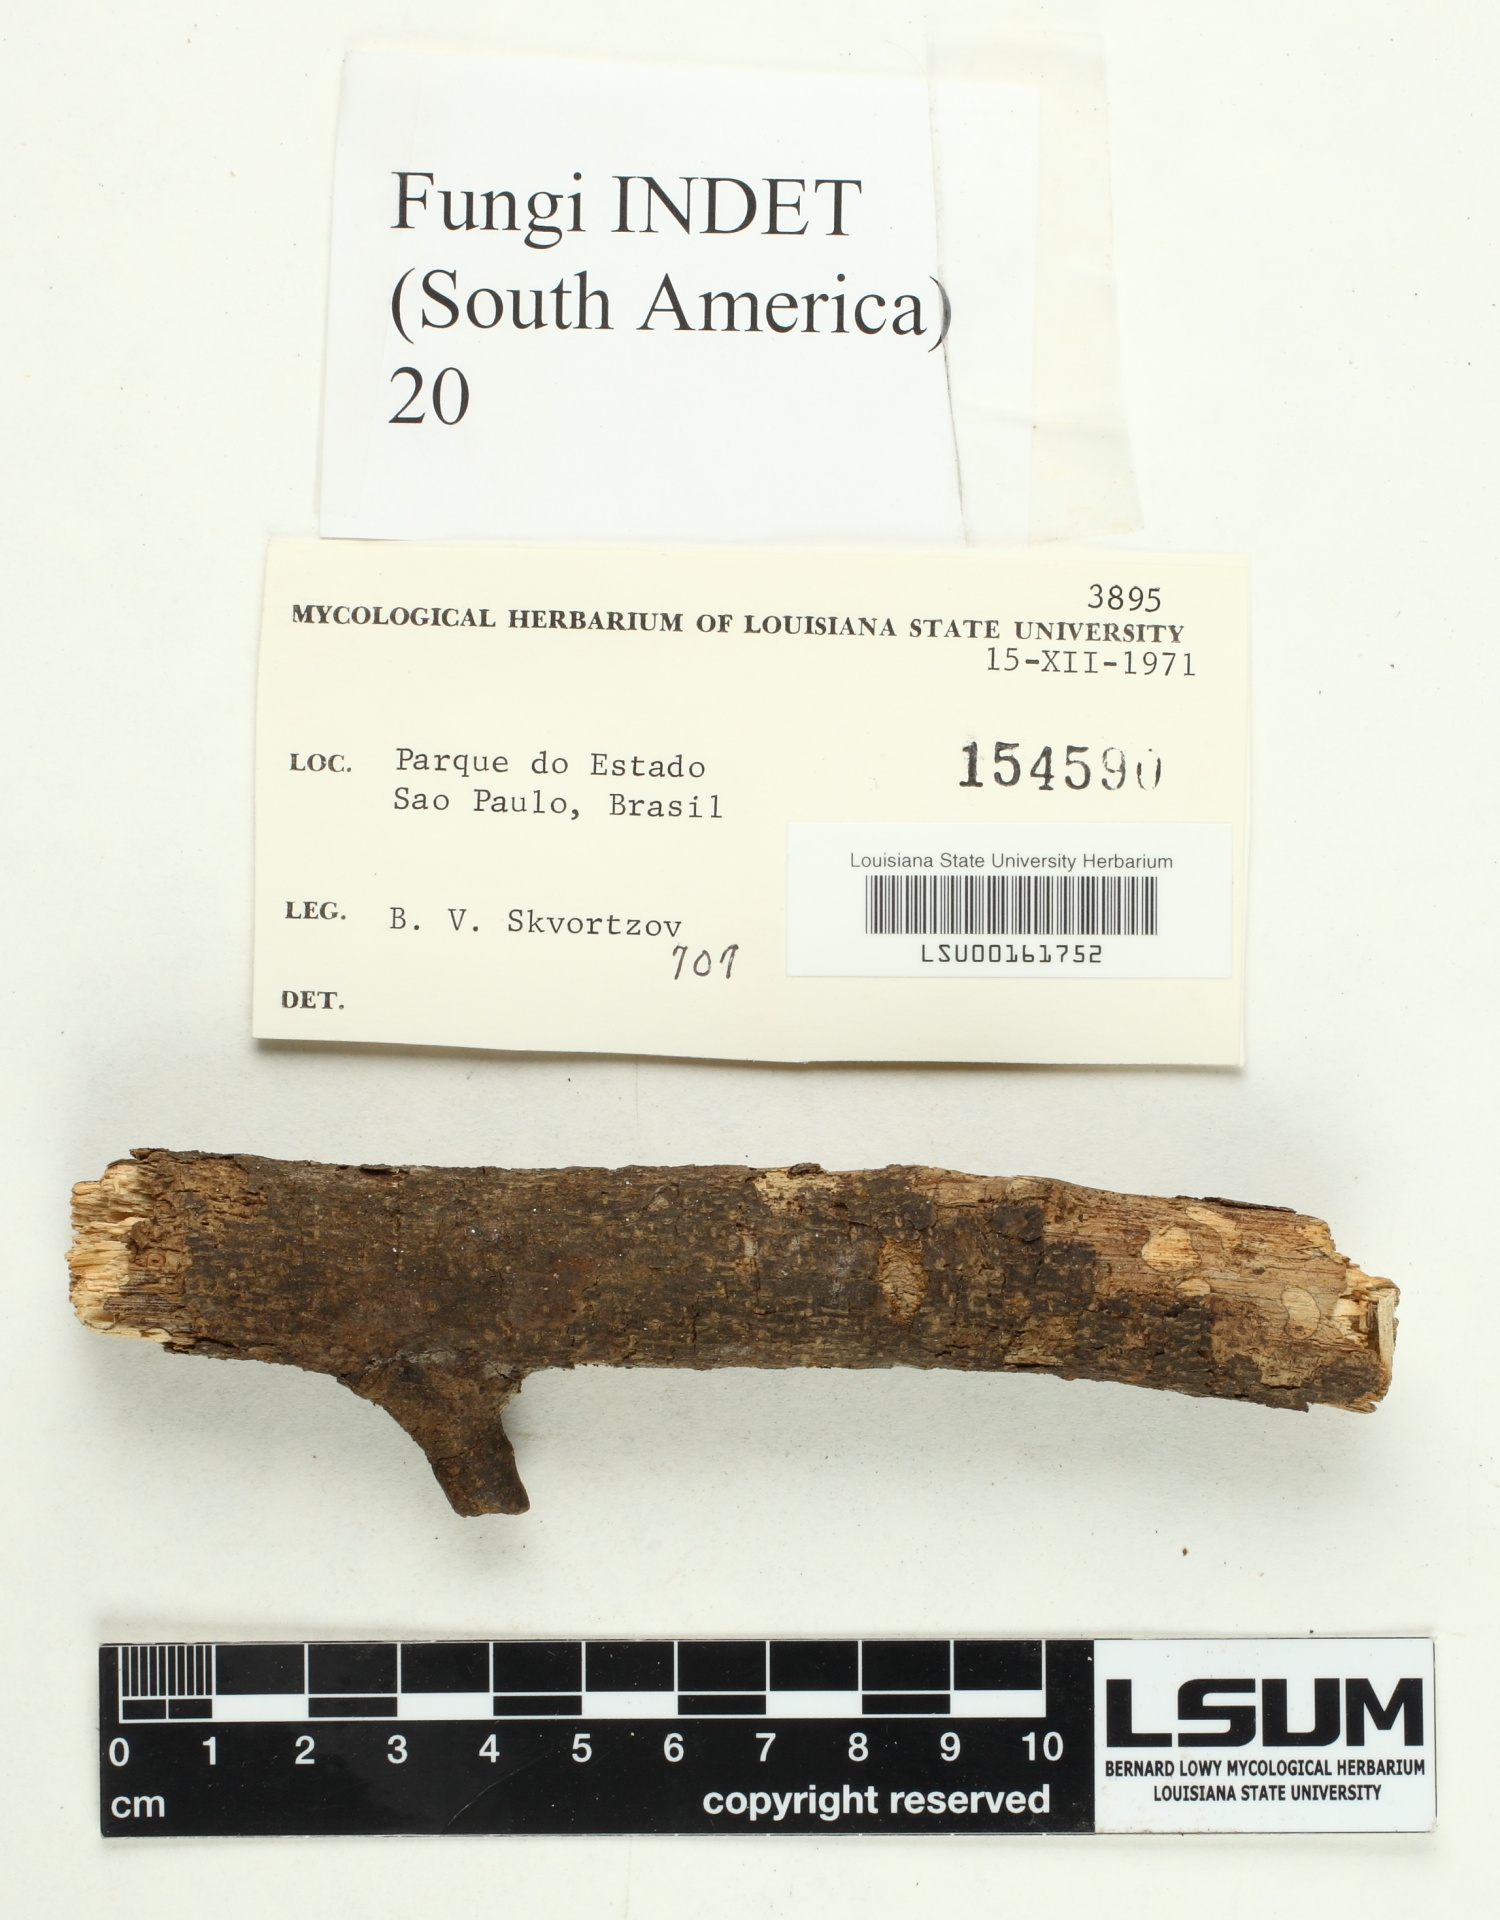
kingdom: Fungi
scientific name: Fungi
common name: Fungi
